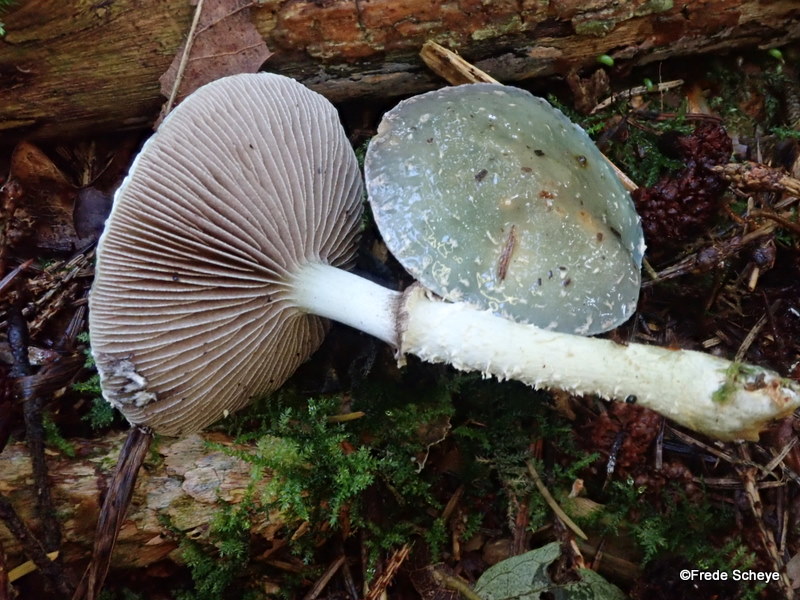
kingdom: Fungi
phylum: Basidiomycota
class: Agaricomycetes
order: Agaricales
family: Strophariaceae
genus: Stropharia
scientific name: Stropharia aeruginosa
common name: spanskgrøn bredblad
